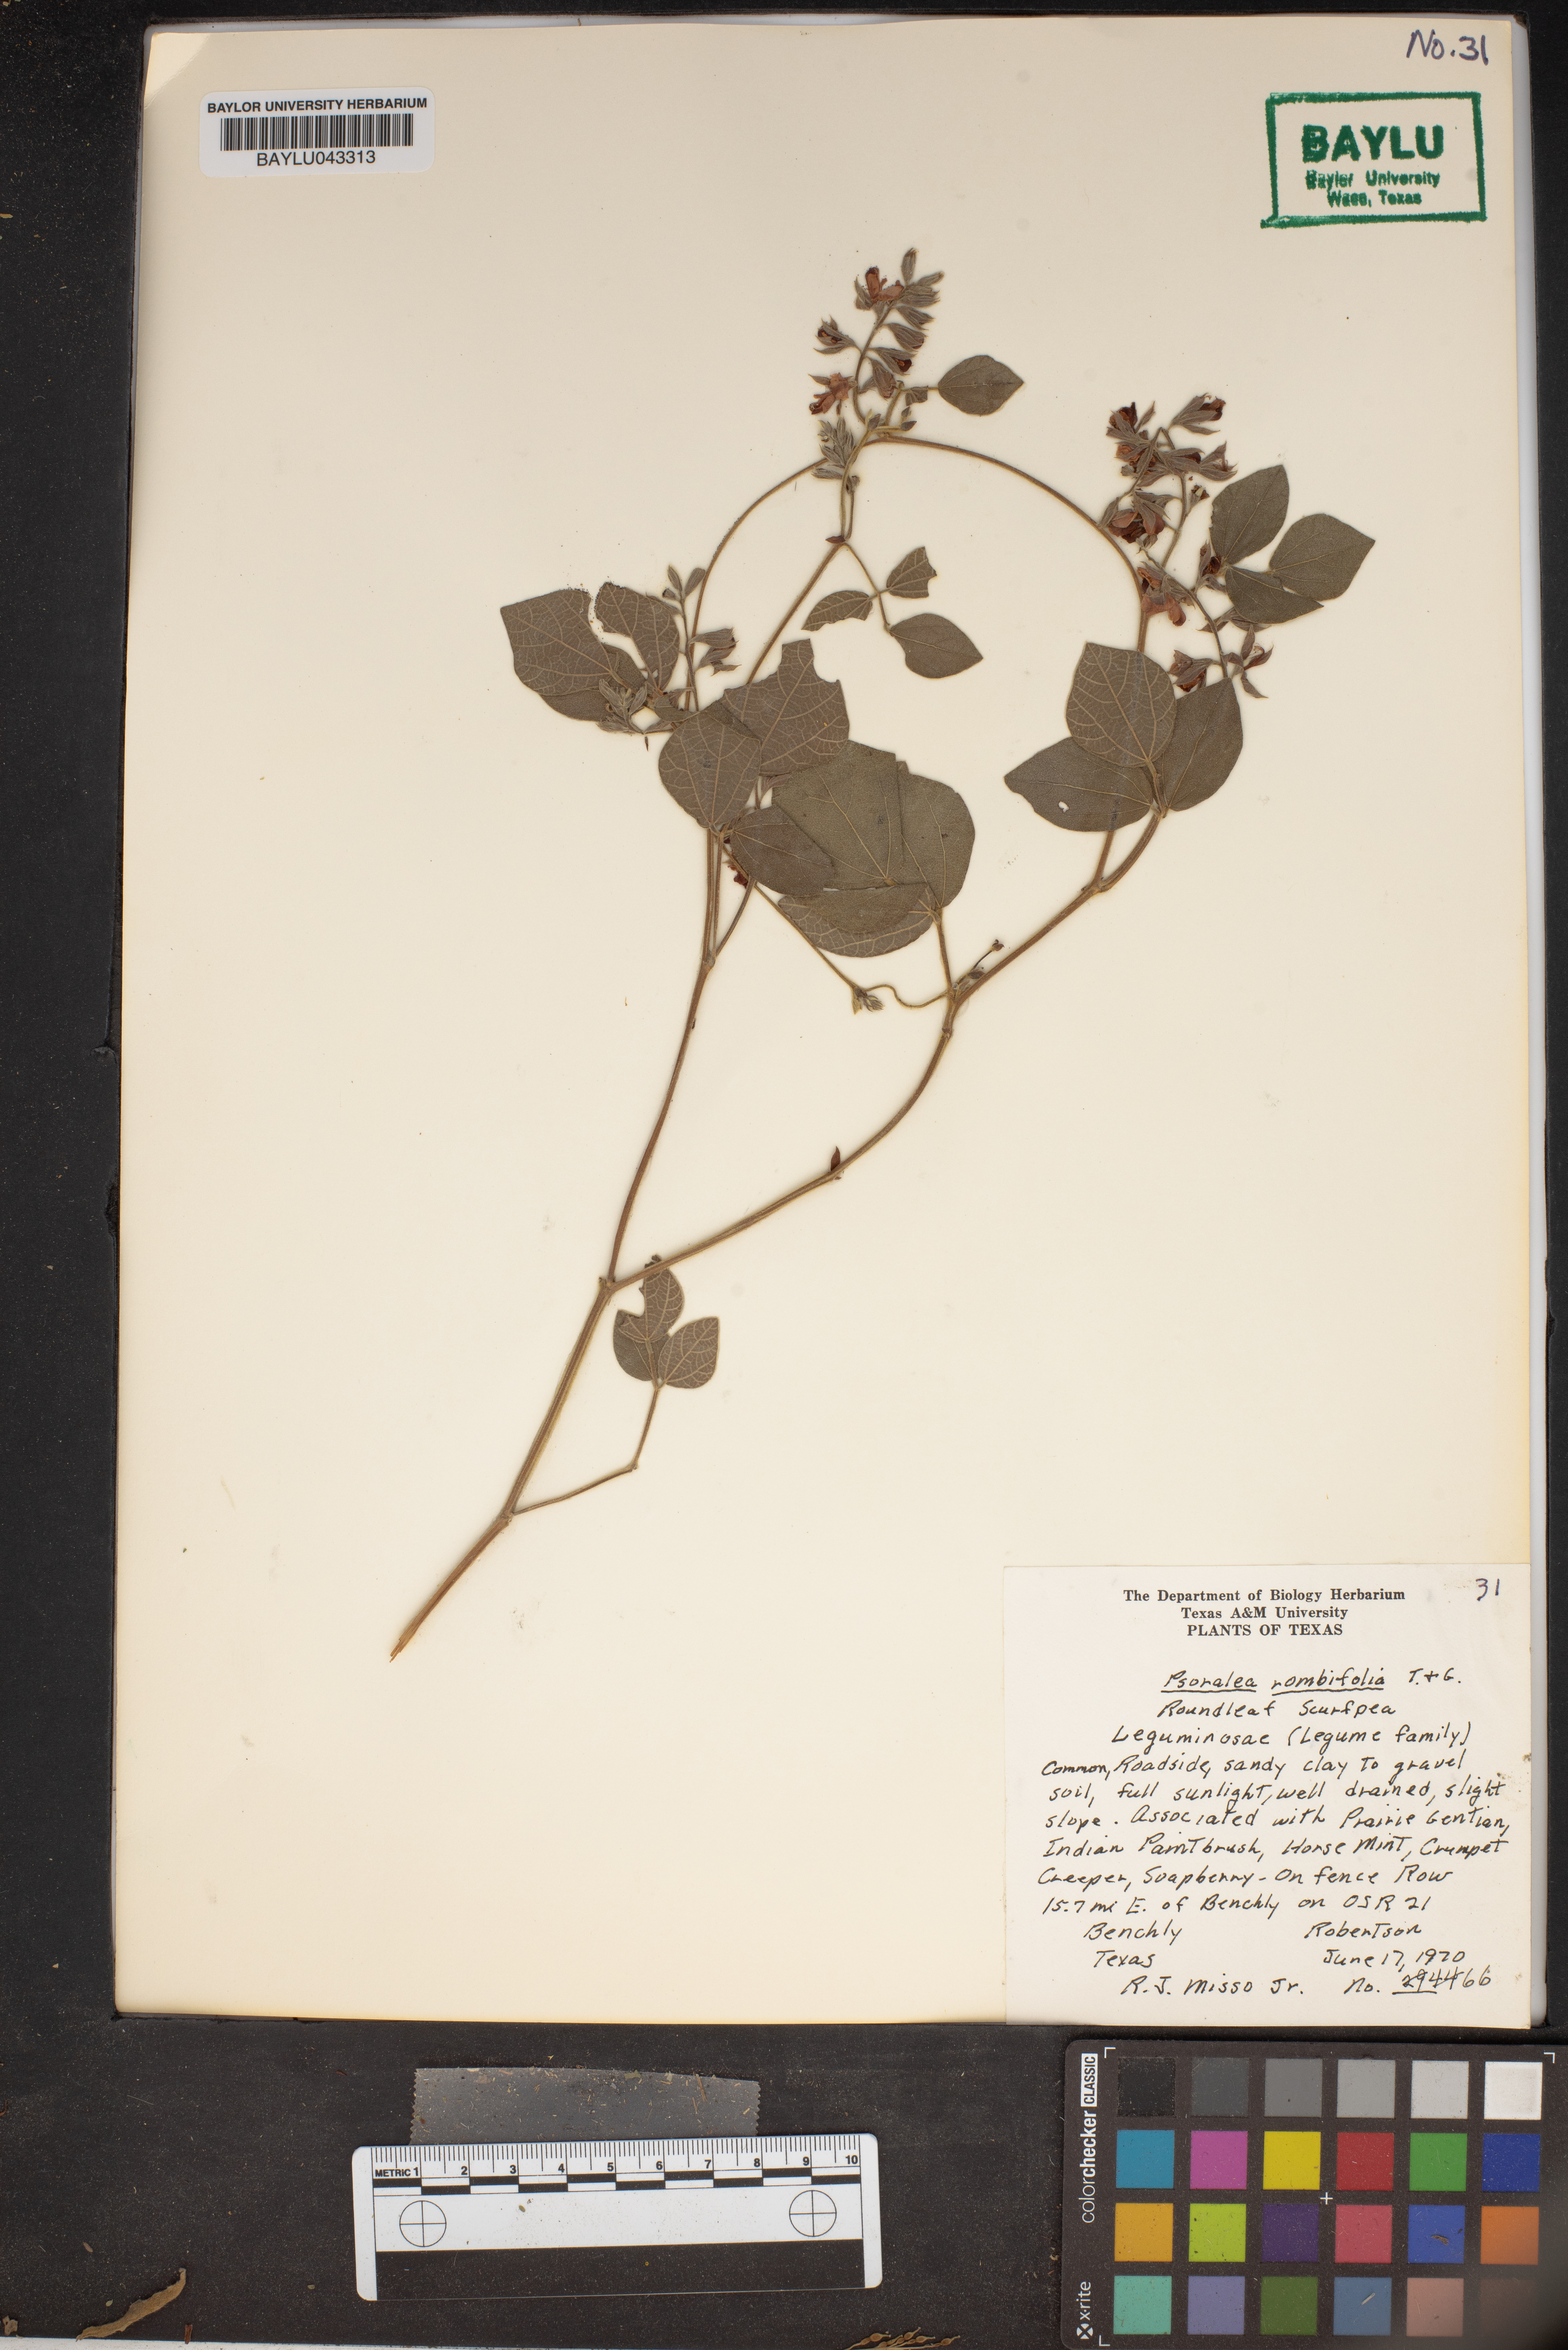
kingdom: Plantae
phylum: Tracheophyta
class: Magnoliopsida
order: Fabales
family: Fabaceae
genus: Psoralea
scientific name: Psoralea rotundifolia
